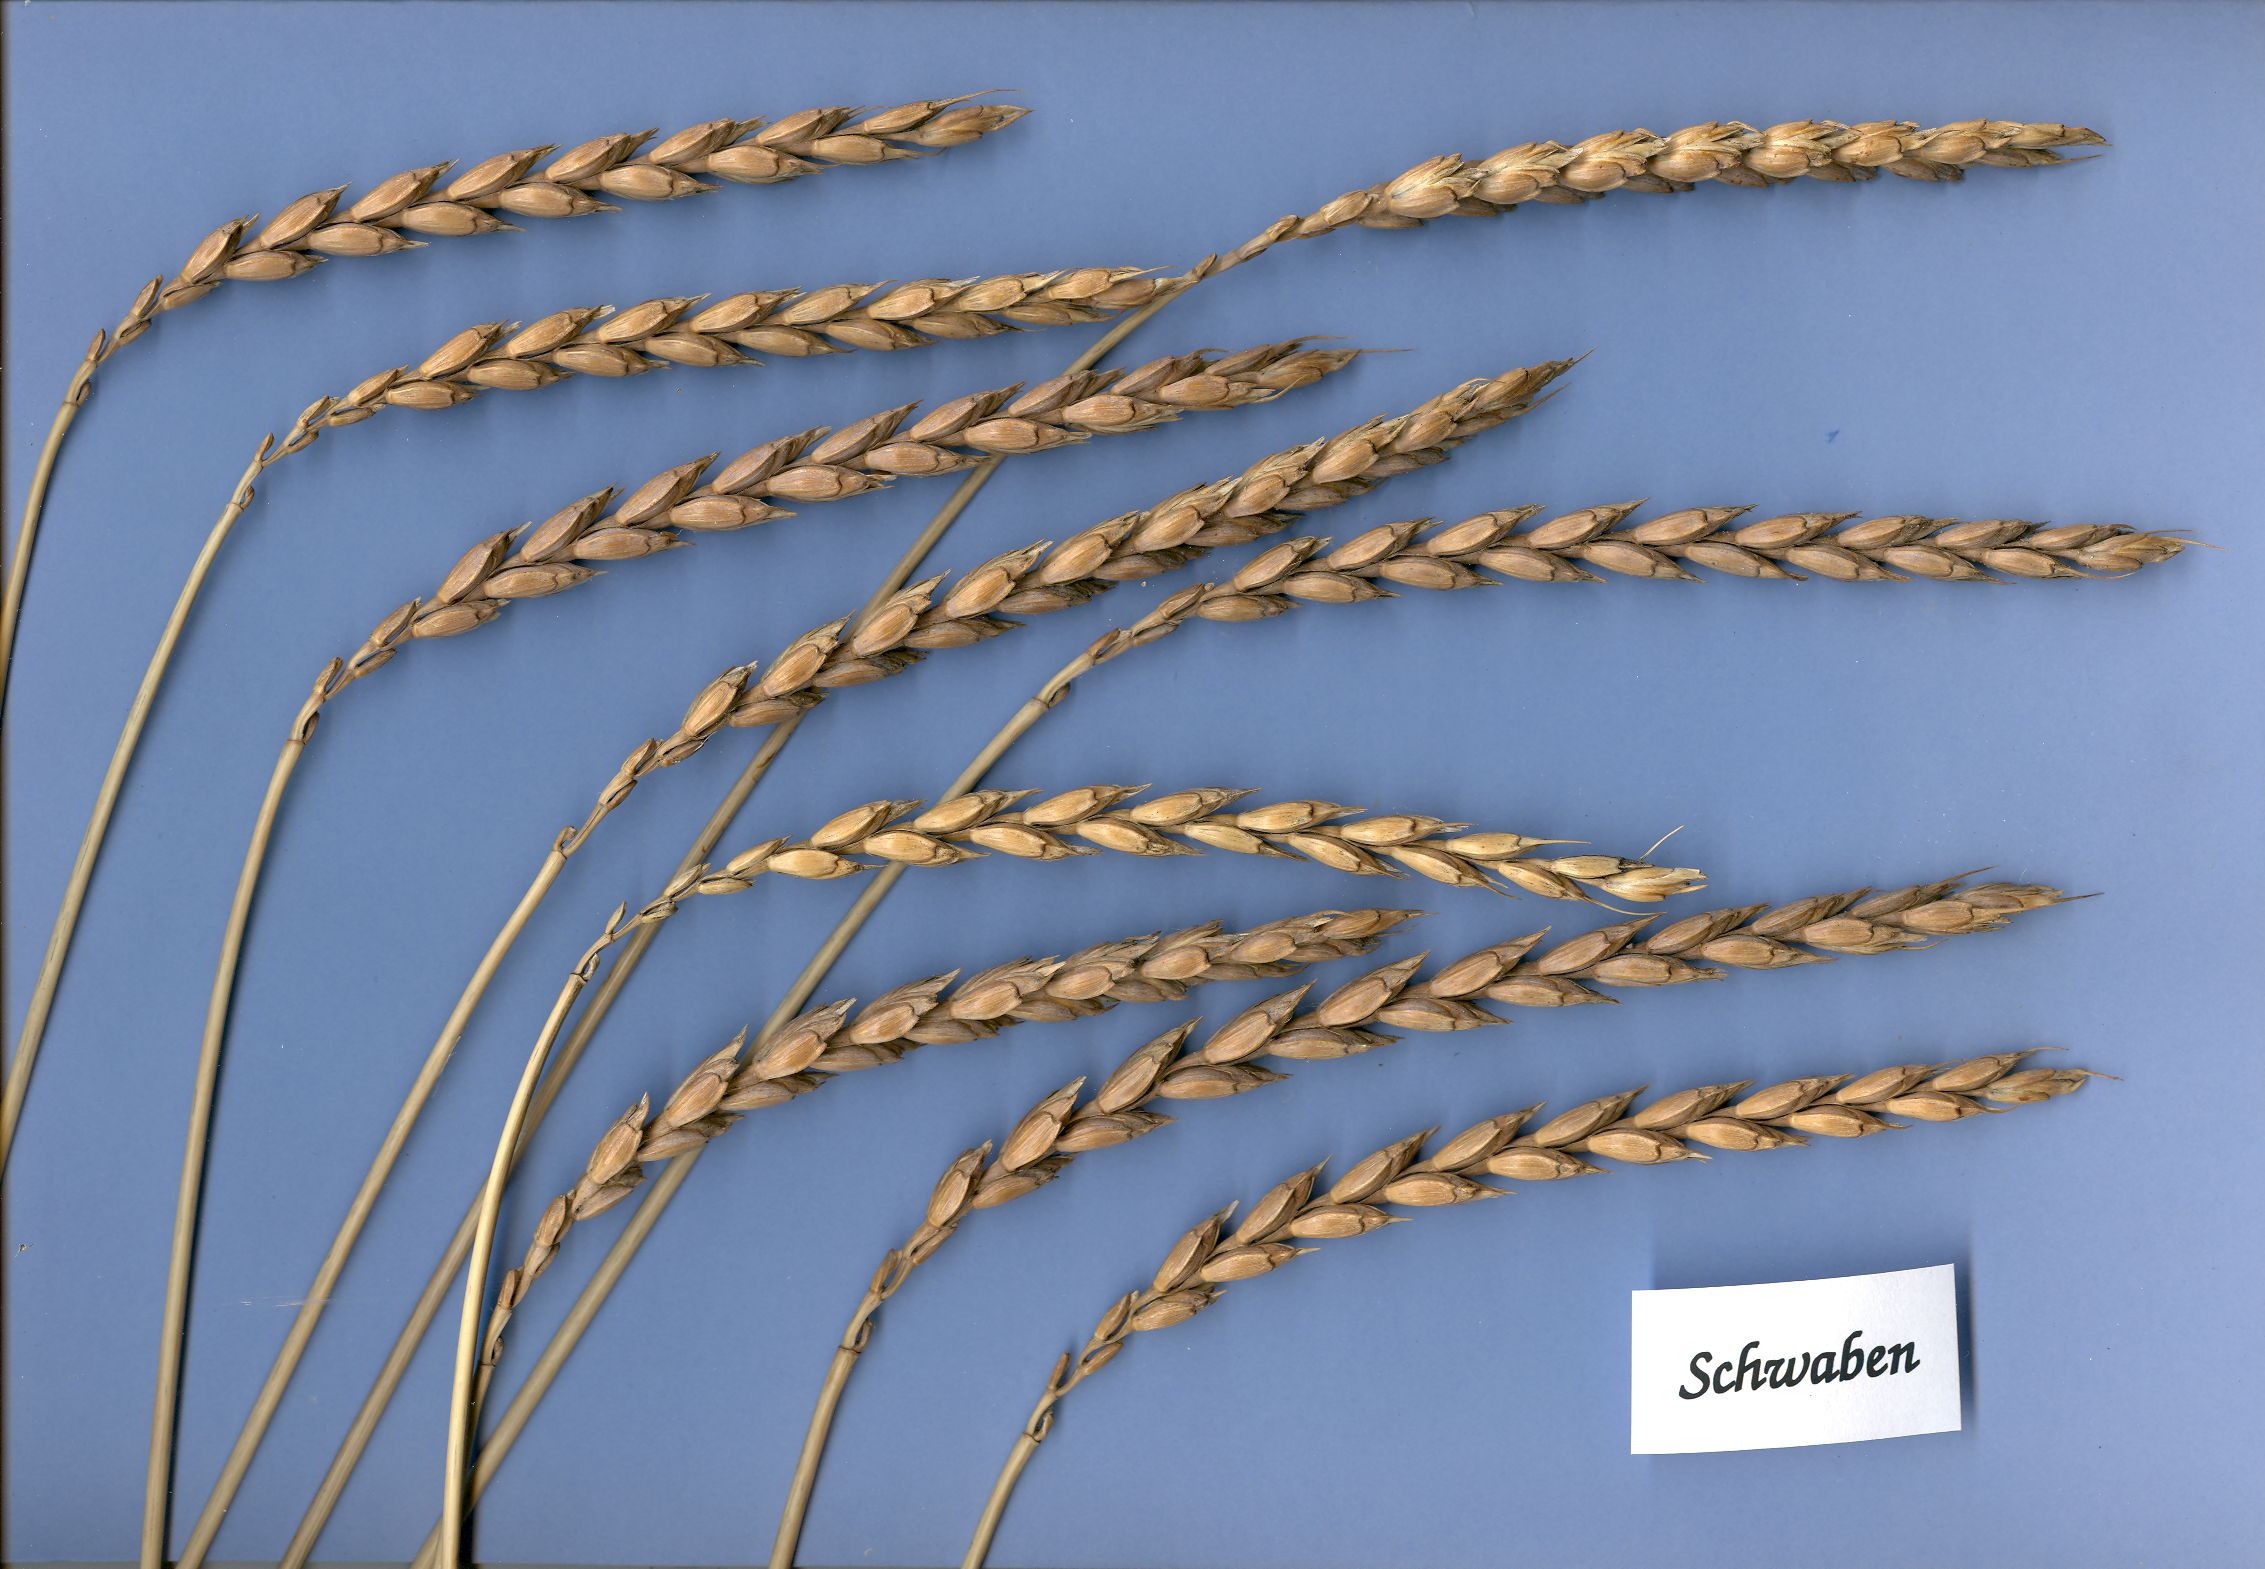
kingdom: Plantae
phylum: Tracheophyta
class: Liliopsida
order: Poales
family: Poaceae
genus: Triticum
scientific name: Triticum aestivum
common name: Common wheat
